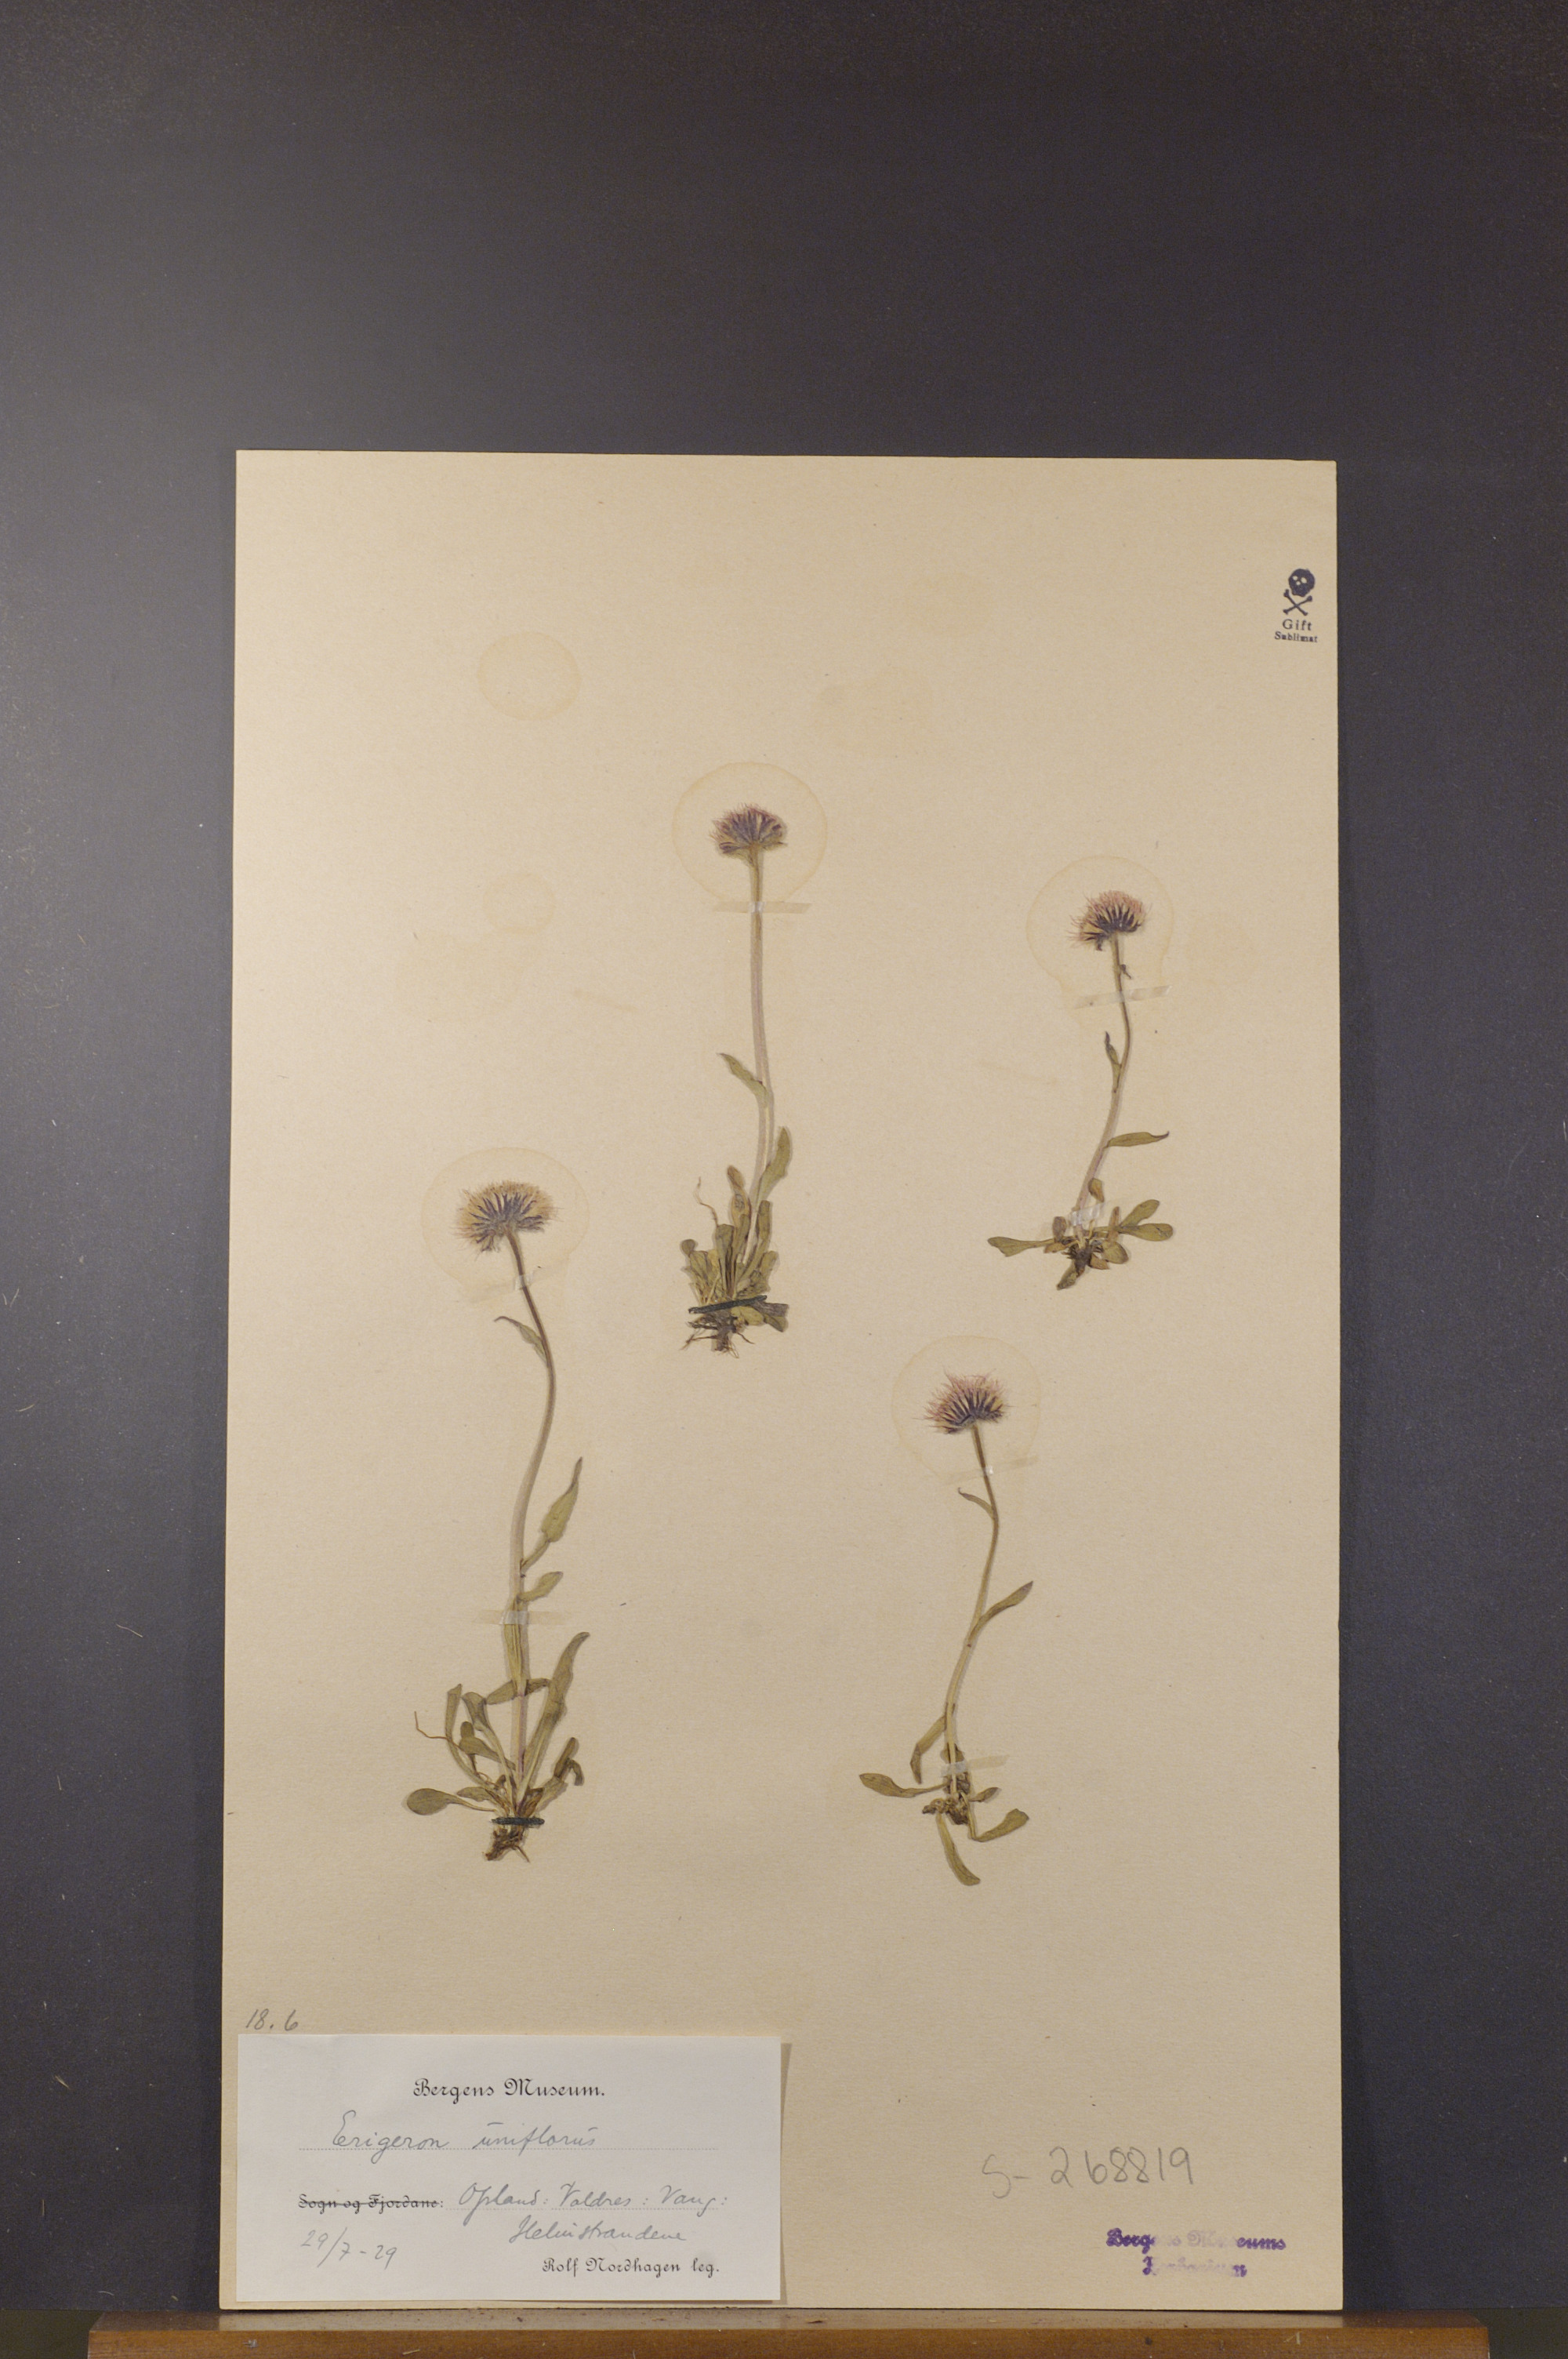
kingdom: Plantae
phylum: Tracheophyta
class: Magnoliopsida
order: Asterales
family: Asteraceae
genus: Erigeron
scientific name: Erigeron uniflorus
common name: Northern daisy
